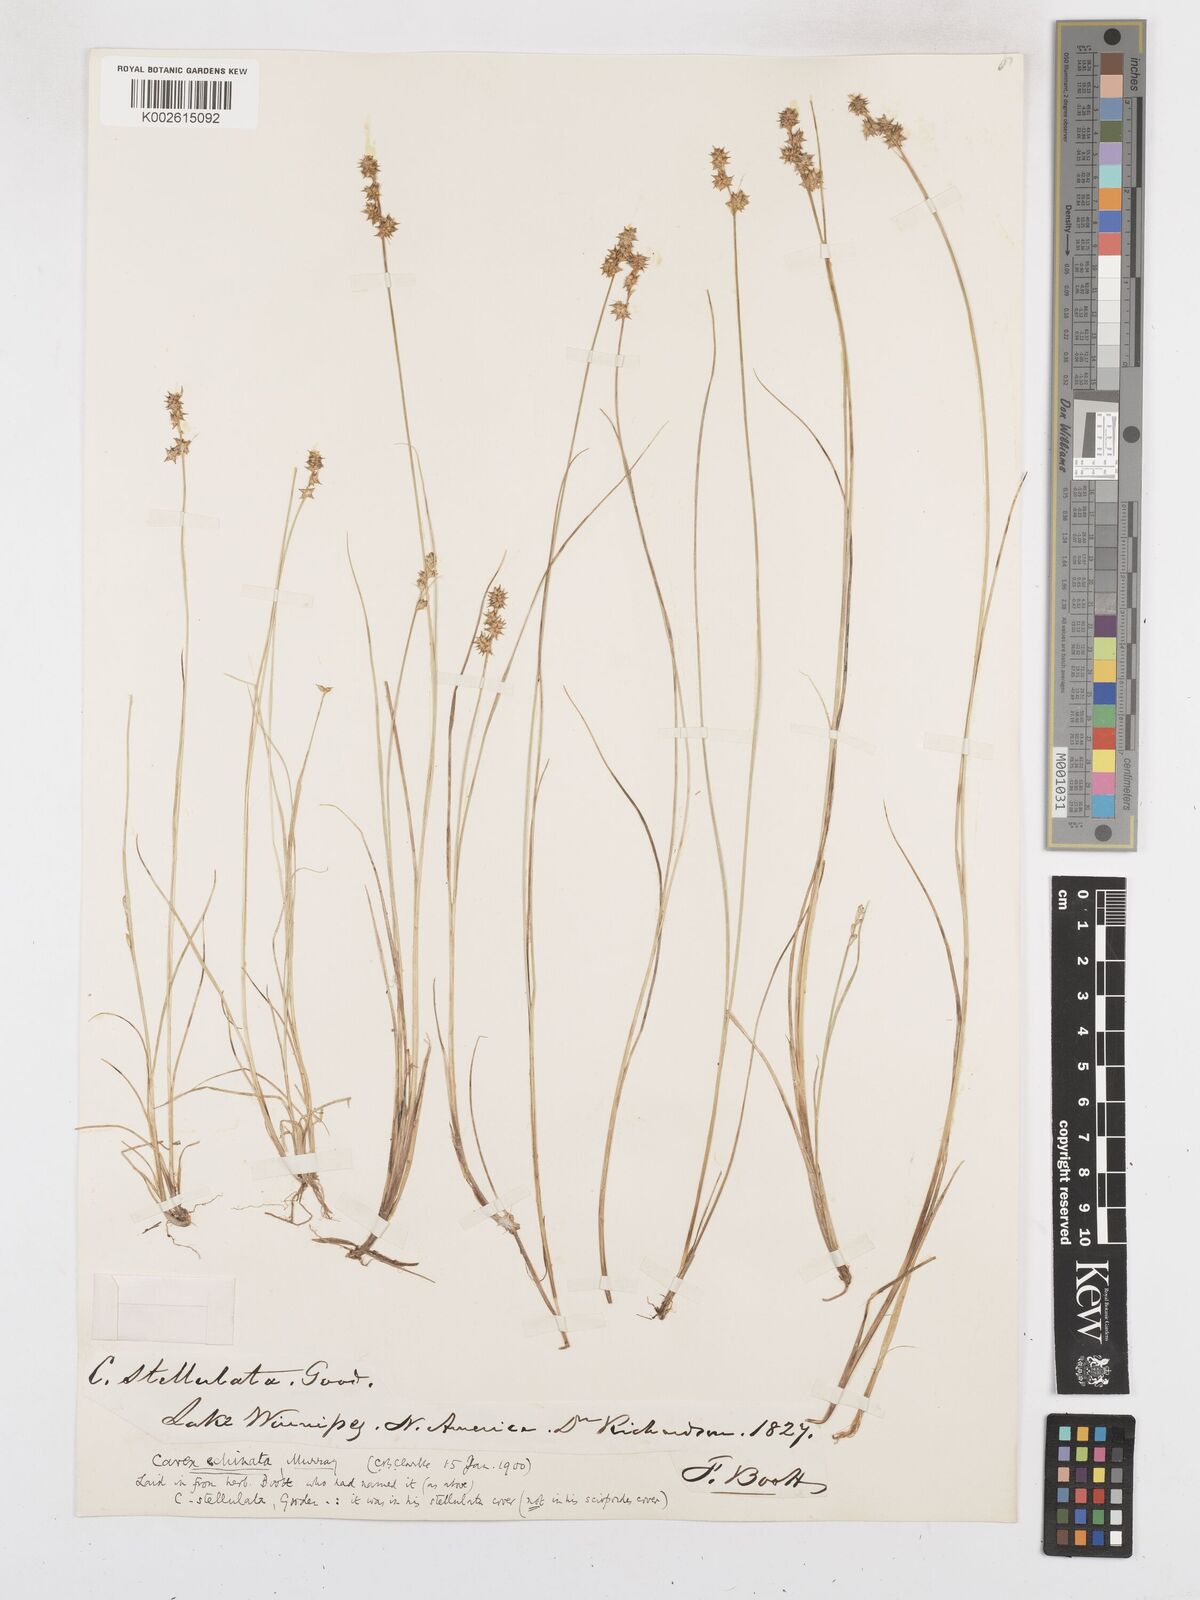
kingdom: Plantae
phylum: Tracheophyta
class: Liliopsida
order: Poales
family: Cyperaceae
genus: Carex
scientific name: Carex echinata
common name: Star sedge
